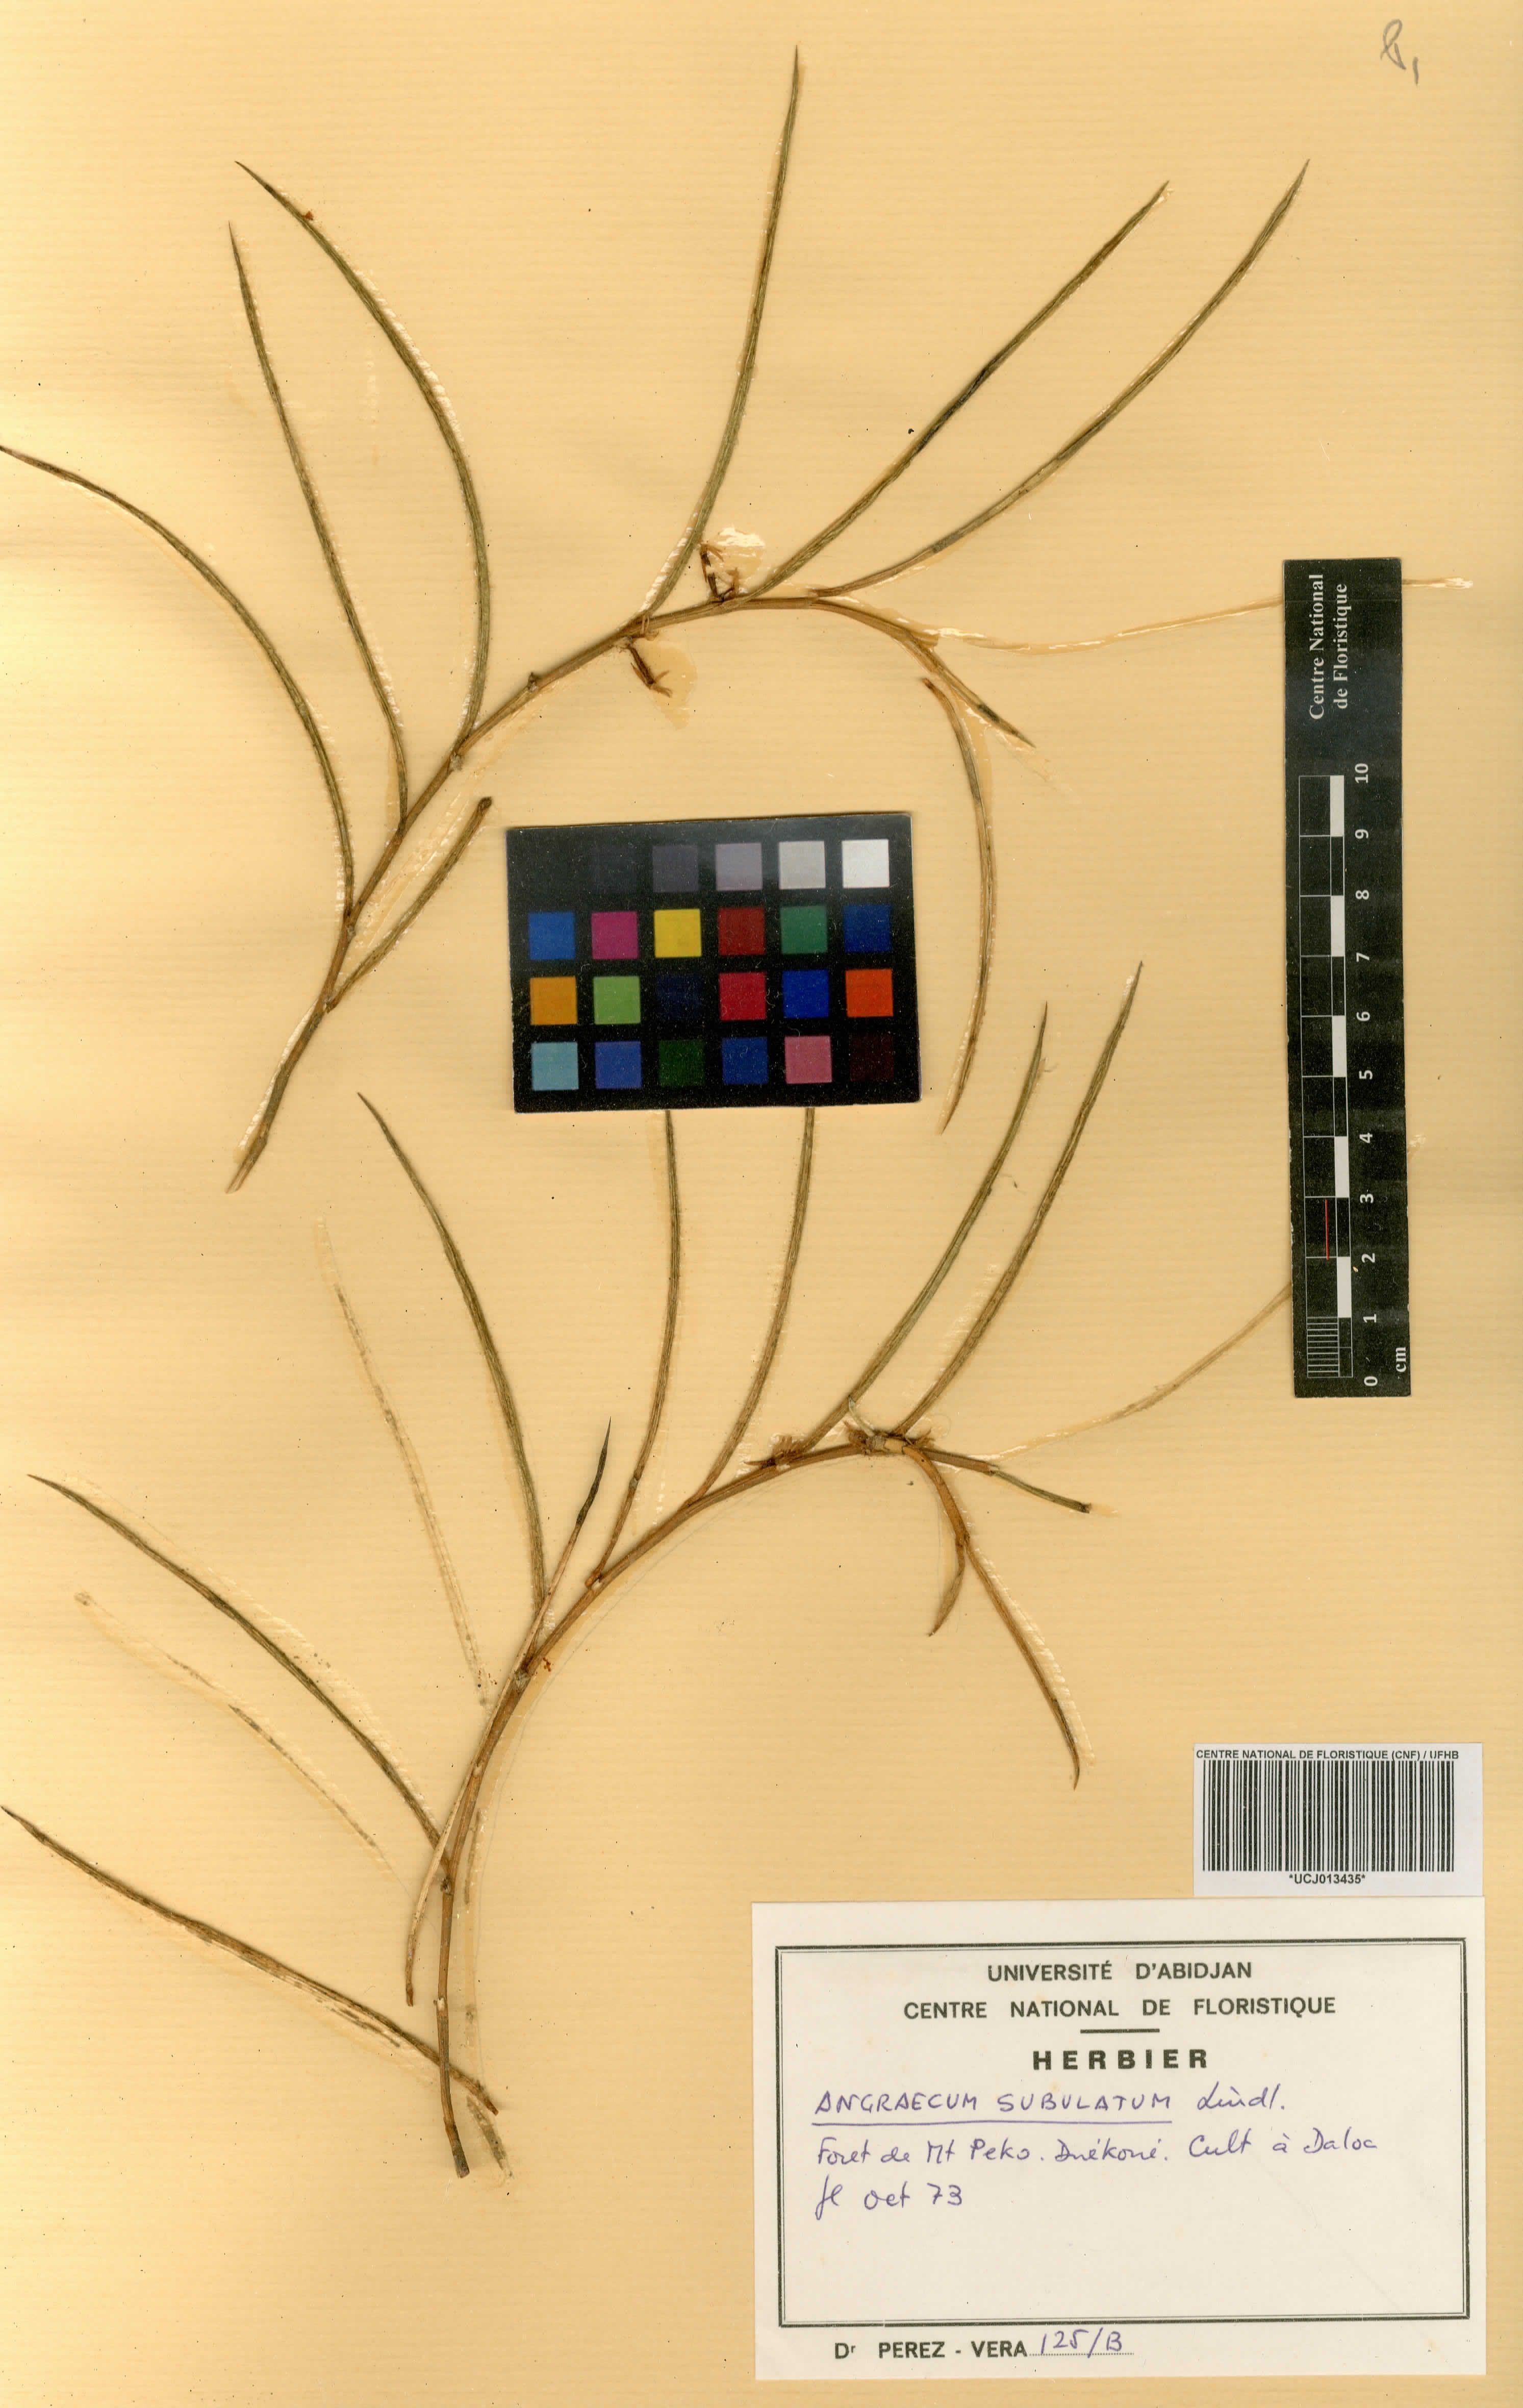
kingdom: Plantae
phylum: Tracheophyta
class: Liliopsida
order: Asparagales
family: Orchidaceae
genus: Afropectinariella
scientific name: Afropectinariella subulata
